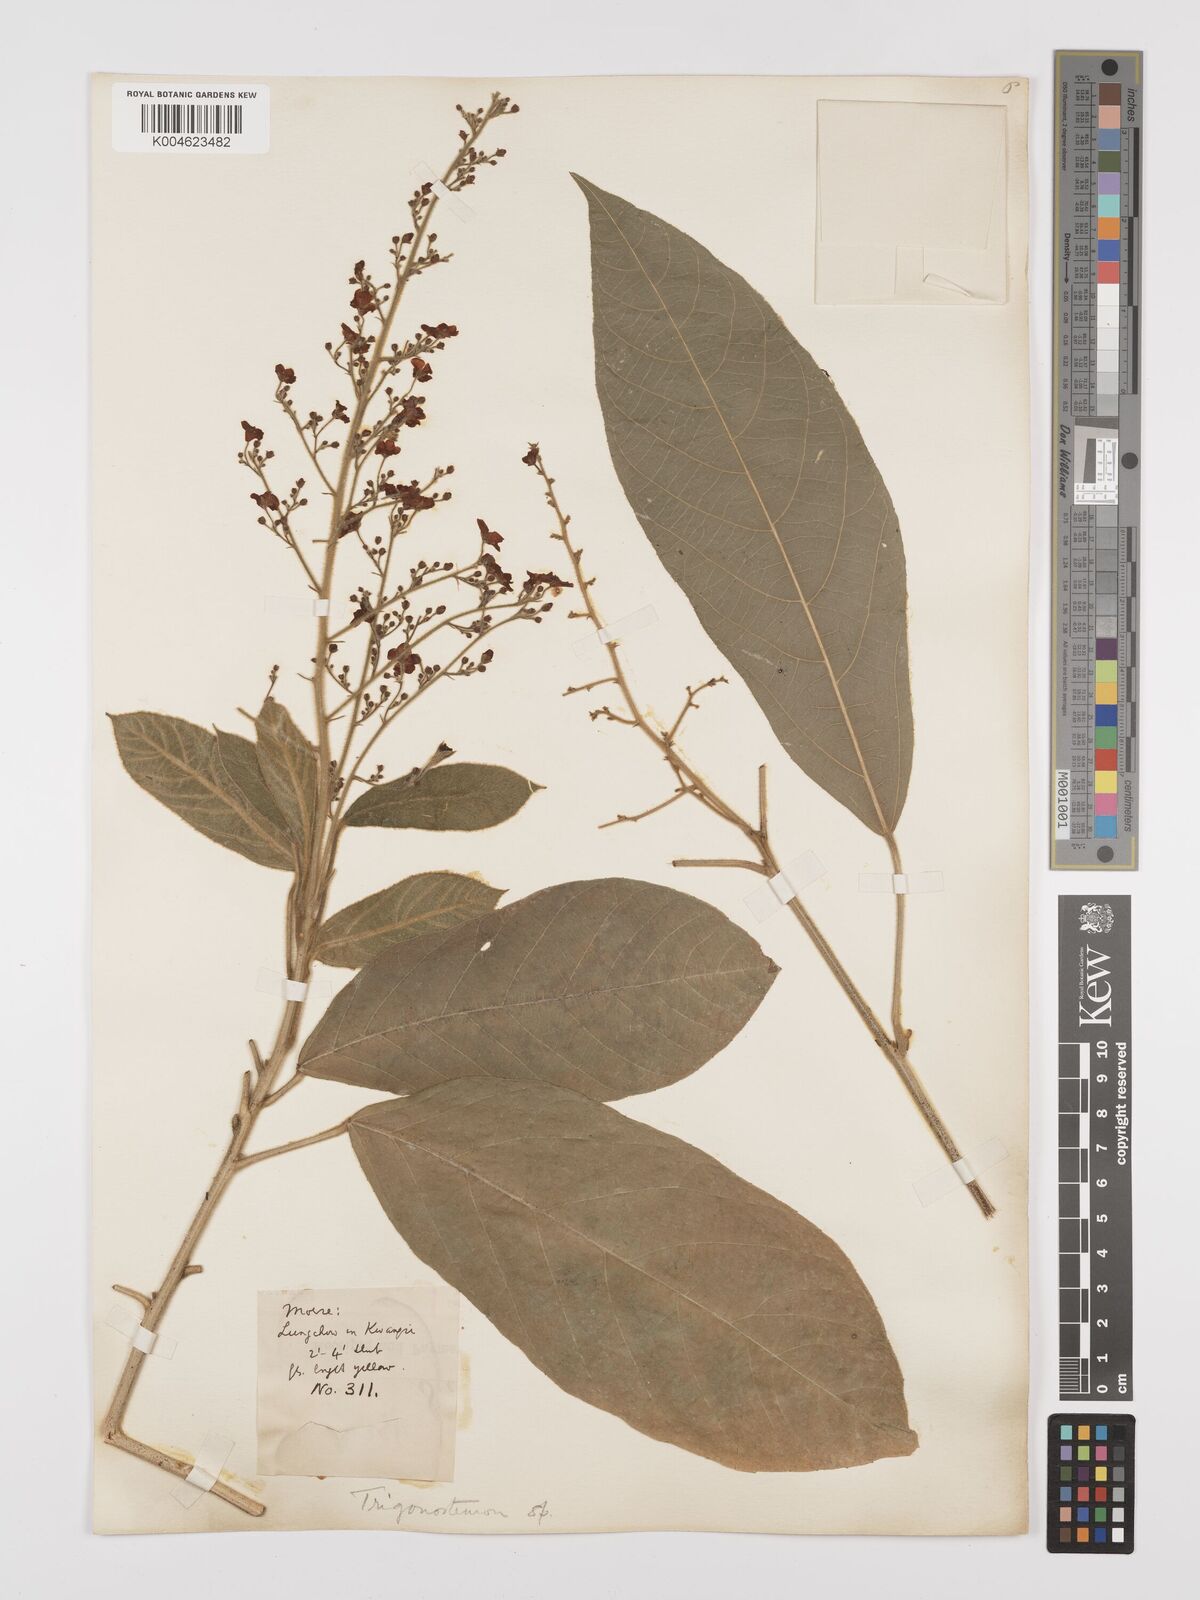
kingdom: Plantae
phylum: Tracheophyta
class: Magnoliopsida
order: Malpighiales
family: Euphorbiaceae
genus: Trigonostemon
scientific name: Trigonostemon
